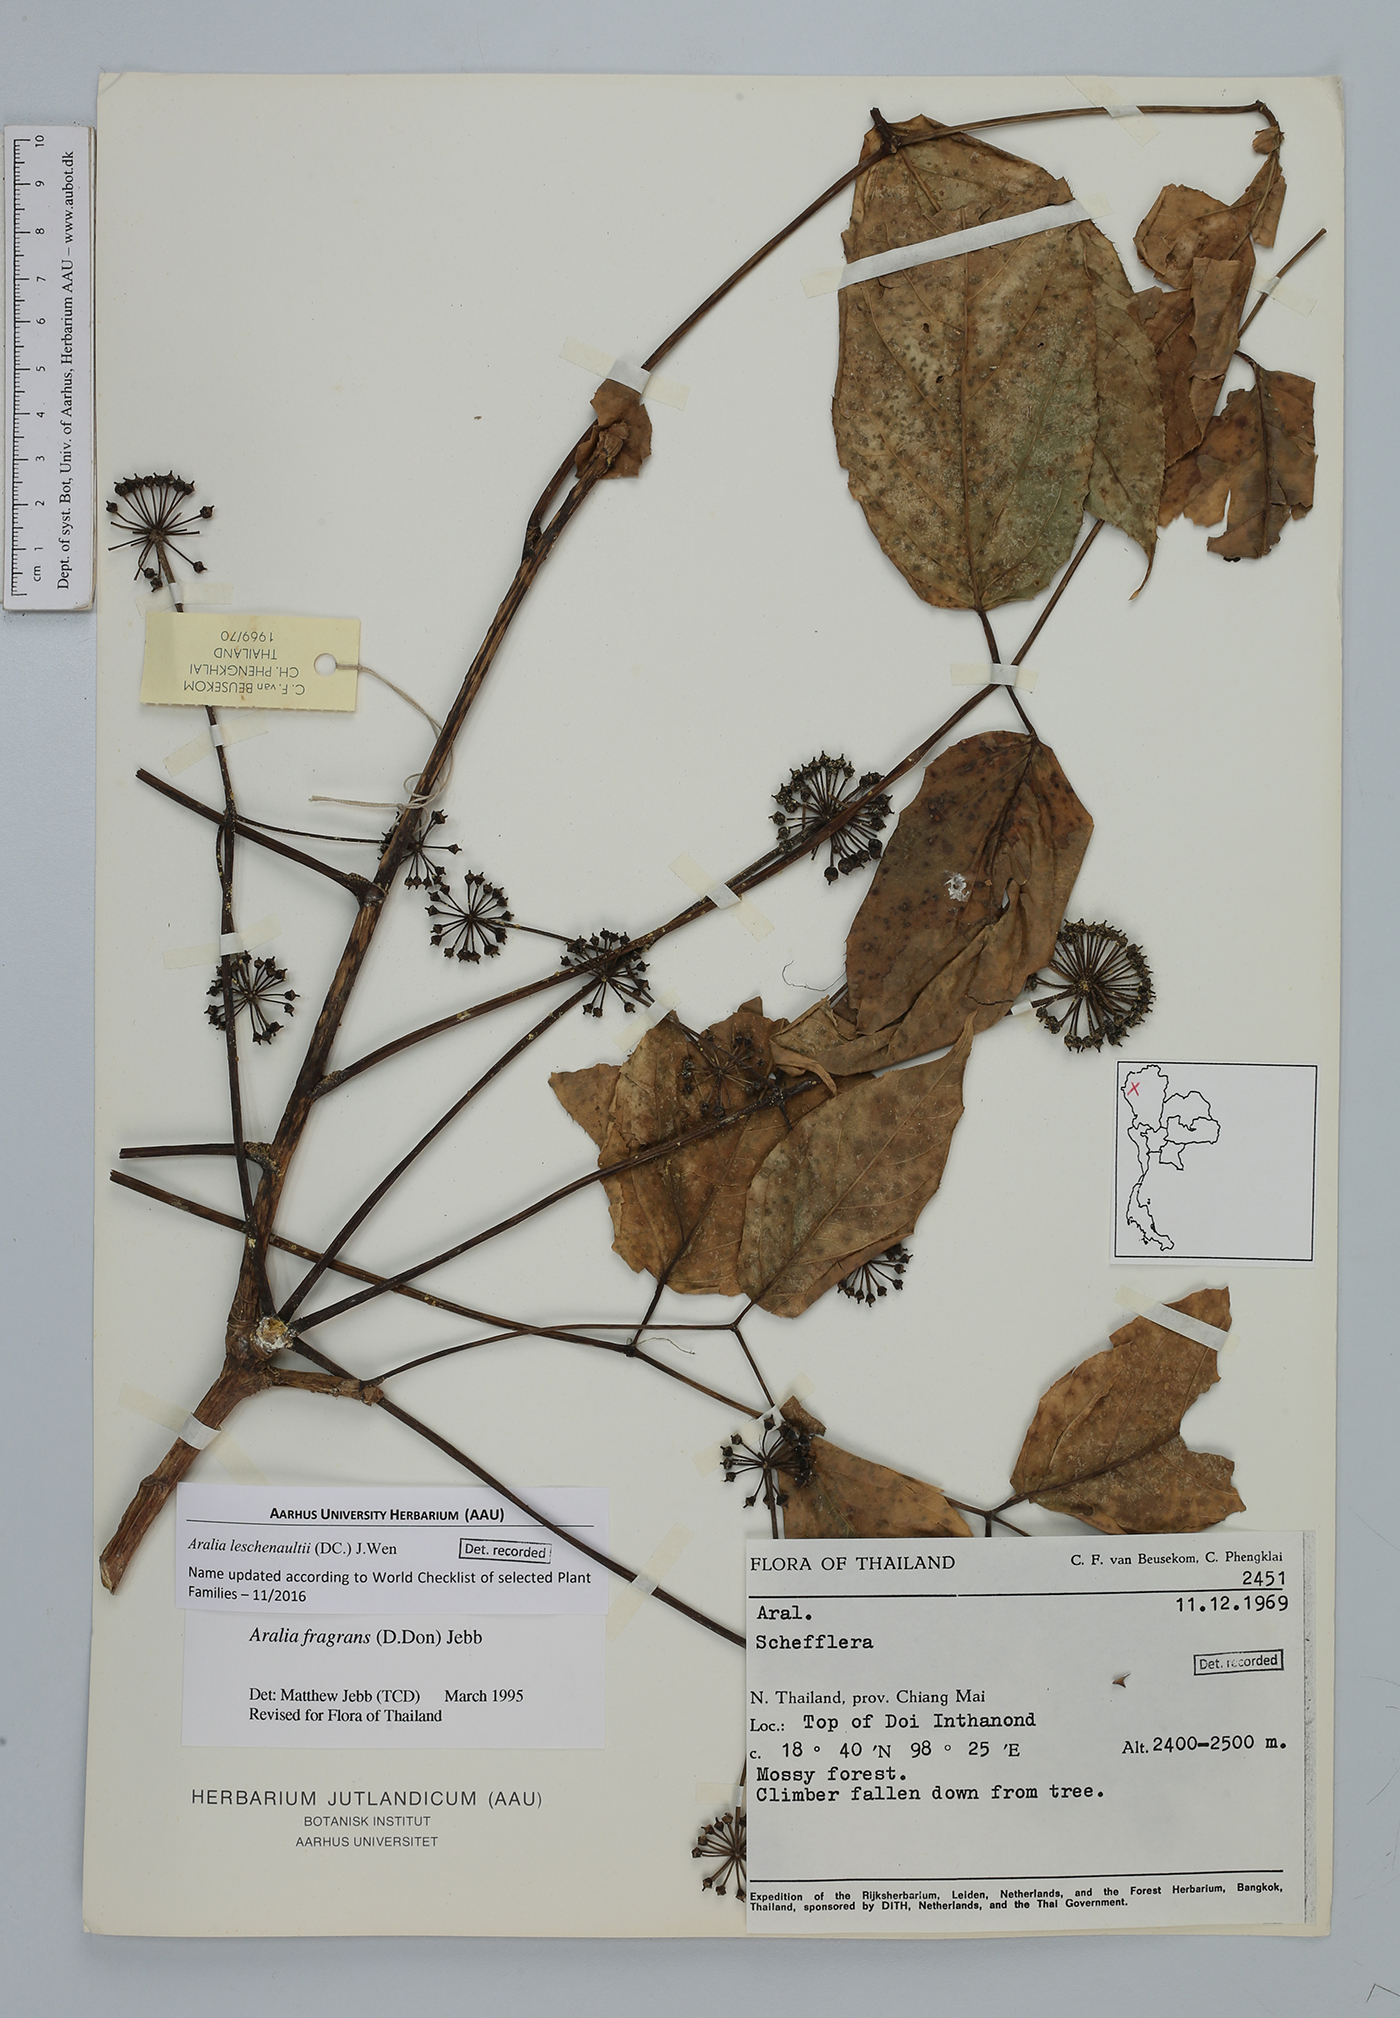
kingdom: Plantae
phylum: Tracheophyta
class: Magnoliopsida
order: Apiales
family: Araliaceae
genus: Aralia
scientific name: Aralia leschenaultii
